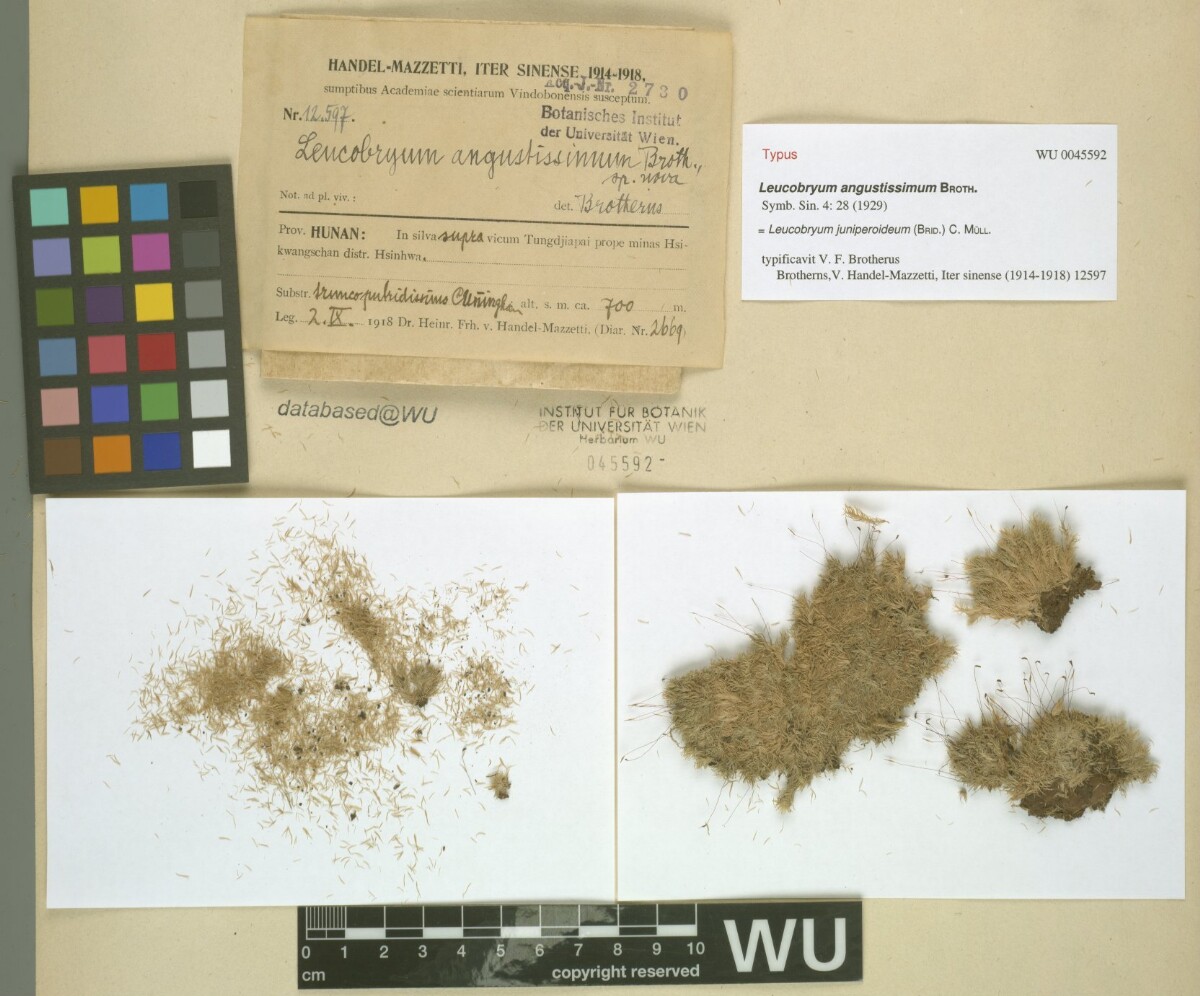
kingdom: Plantae
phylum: Bryophyta
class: Bryopsida
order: Dicranales
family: Leucobryaceae
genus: Leucobryum
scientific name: Leucobryum juniperoideum
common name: Smaller white-moss
